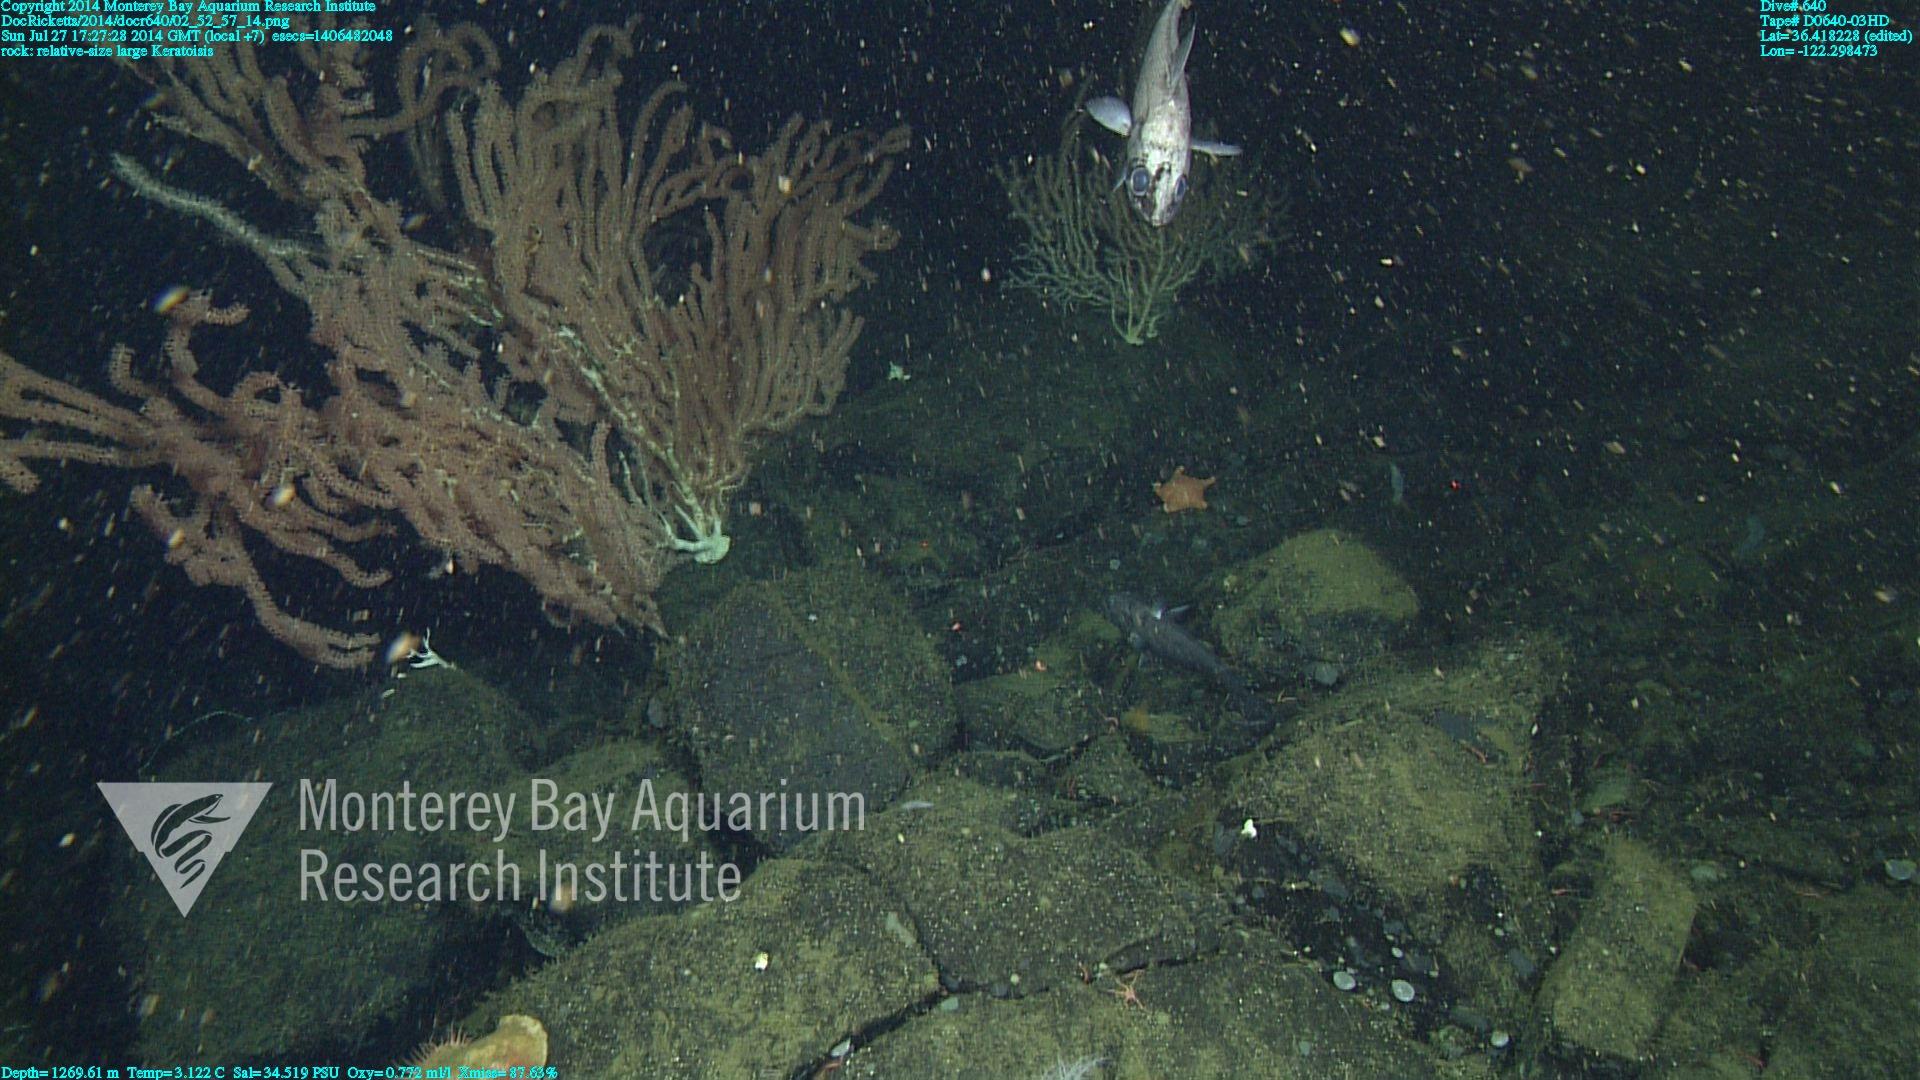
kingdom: Animalia
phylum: Cnidaria
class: Anthozoa
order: Scleralcyonacea
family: Keratoisididae
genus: Keratoisis
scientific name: Keratoisis
